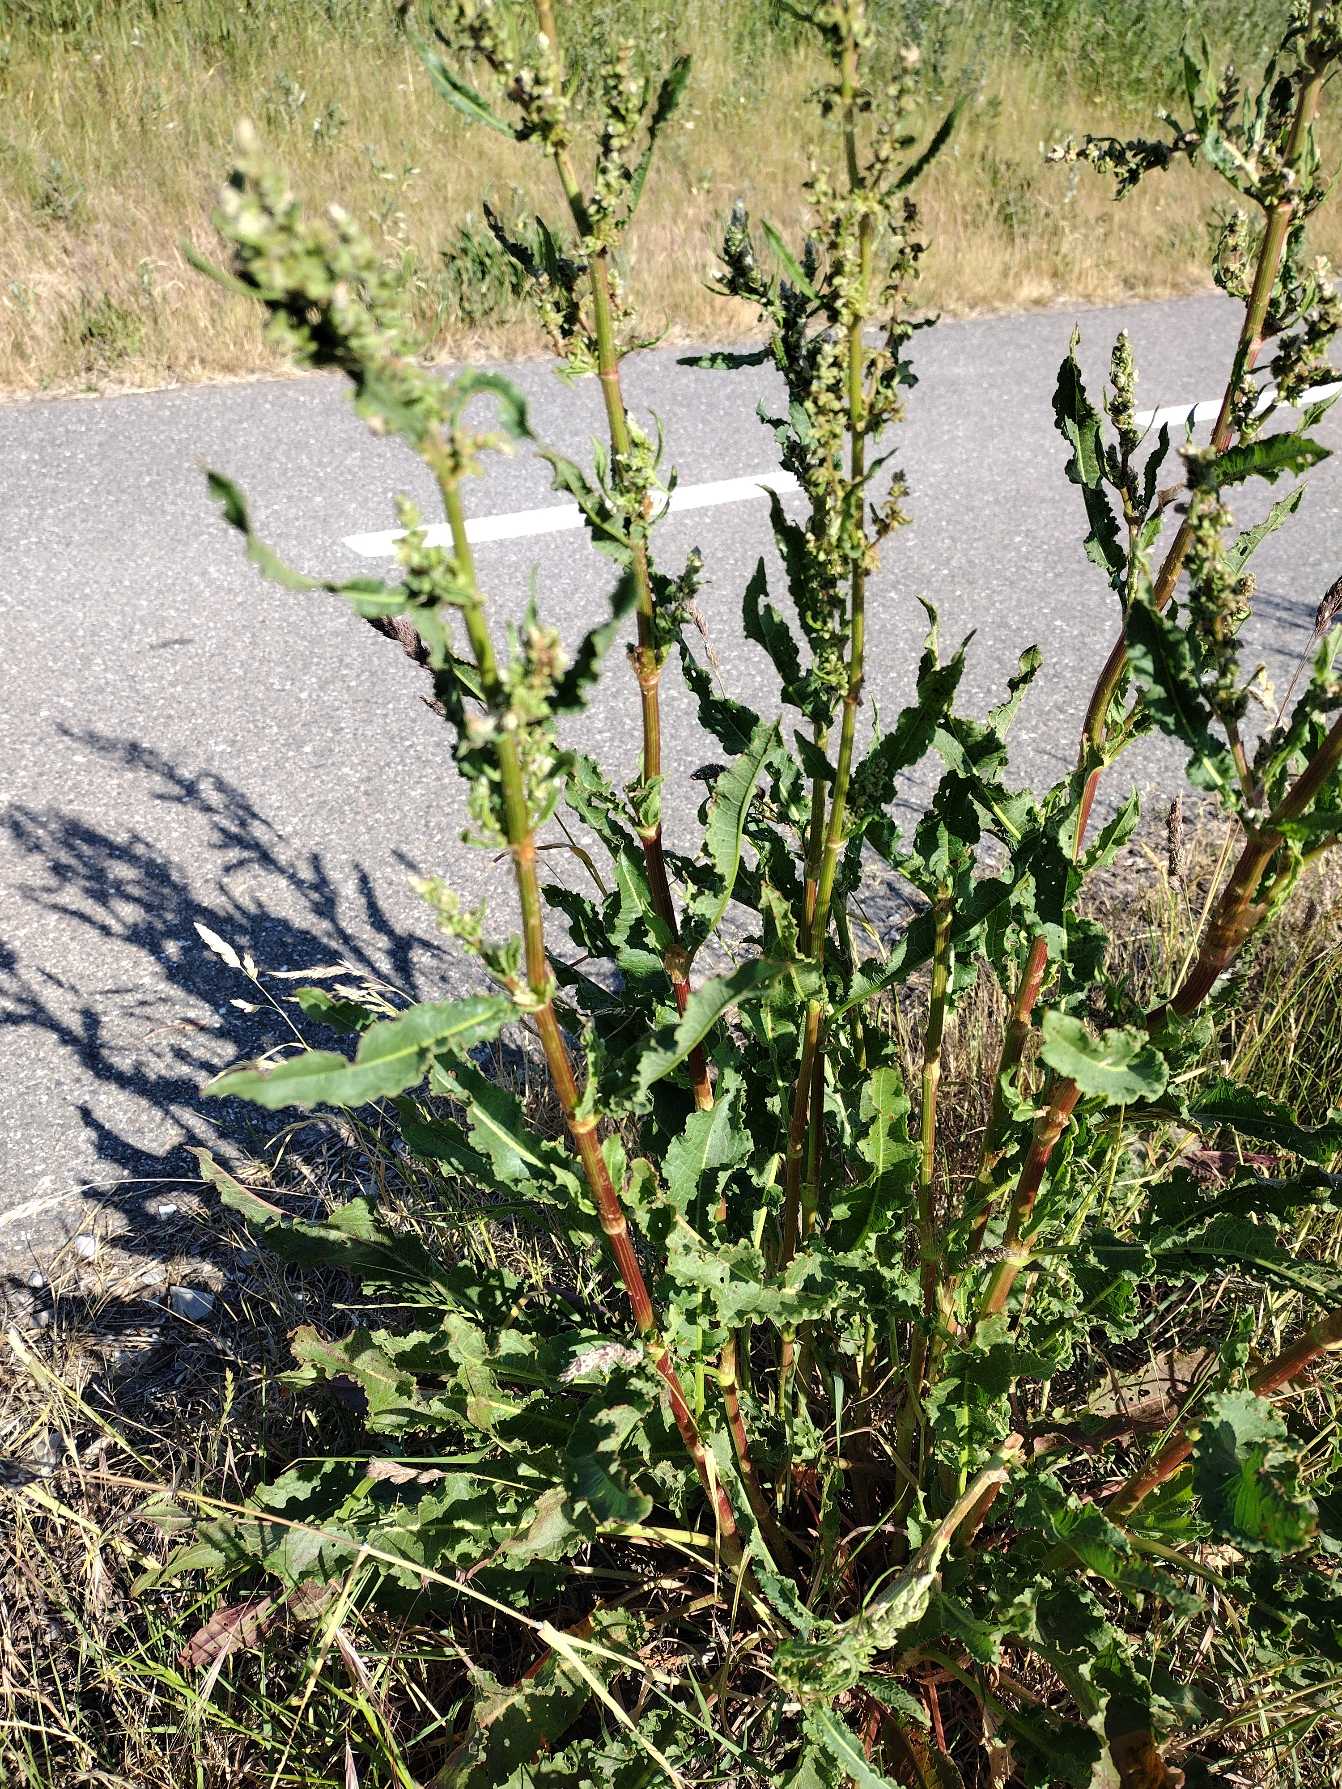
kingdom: Plantae
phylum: Tracheophyta
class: Magnoliopsida
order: Caryophyllales
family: Polygonaceae
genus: Rumex
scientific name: Rumex crispus
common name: Kruset skræppe
